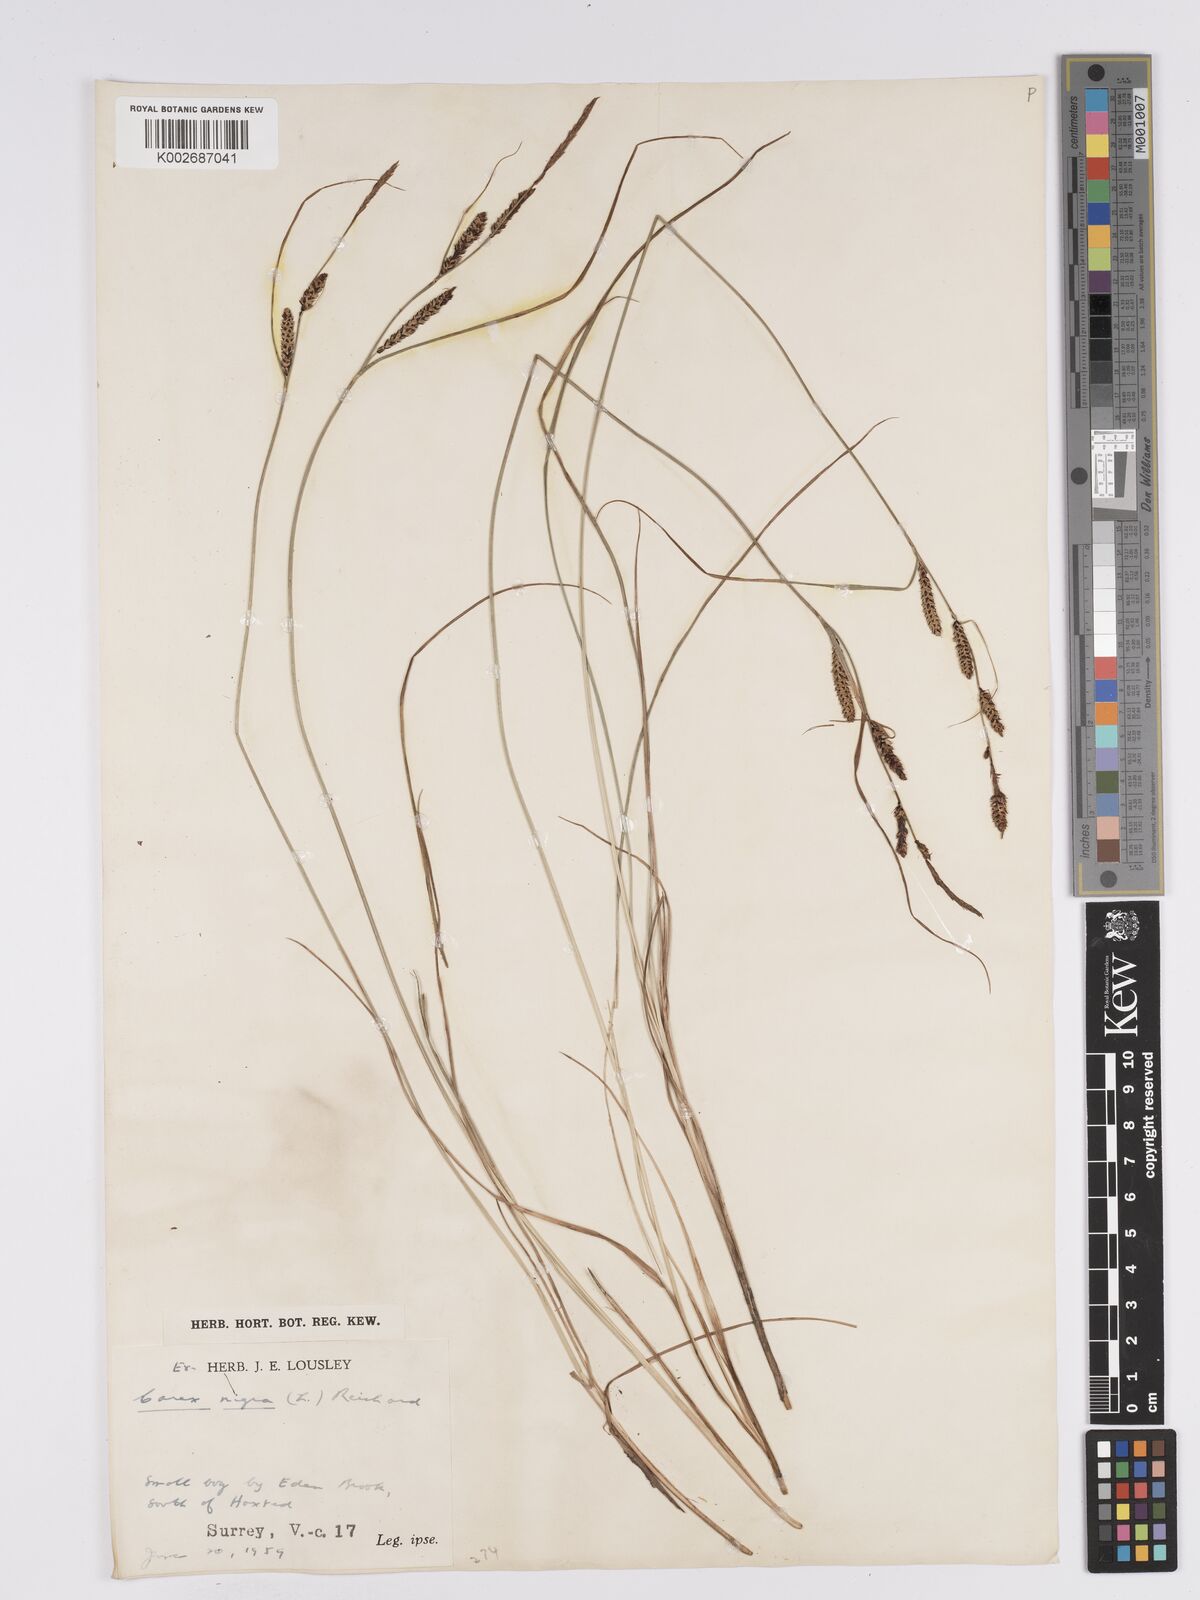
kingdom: Plantae
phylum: Tracheophyta
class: Liliopsida
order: Poales
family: Cyperaceae
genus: Carex
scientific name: Carex nigra
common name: Common sedge
